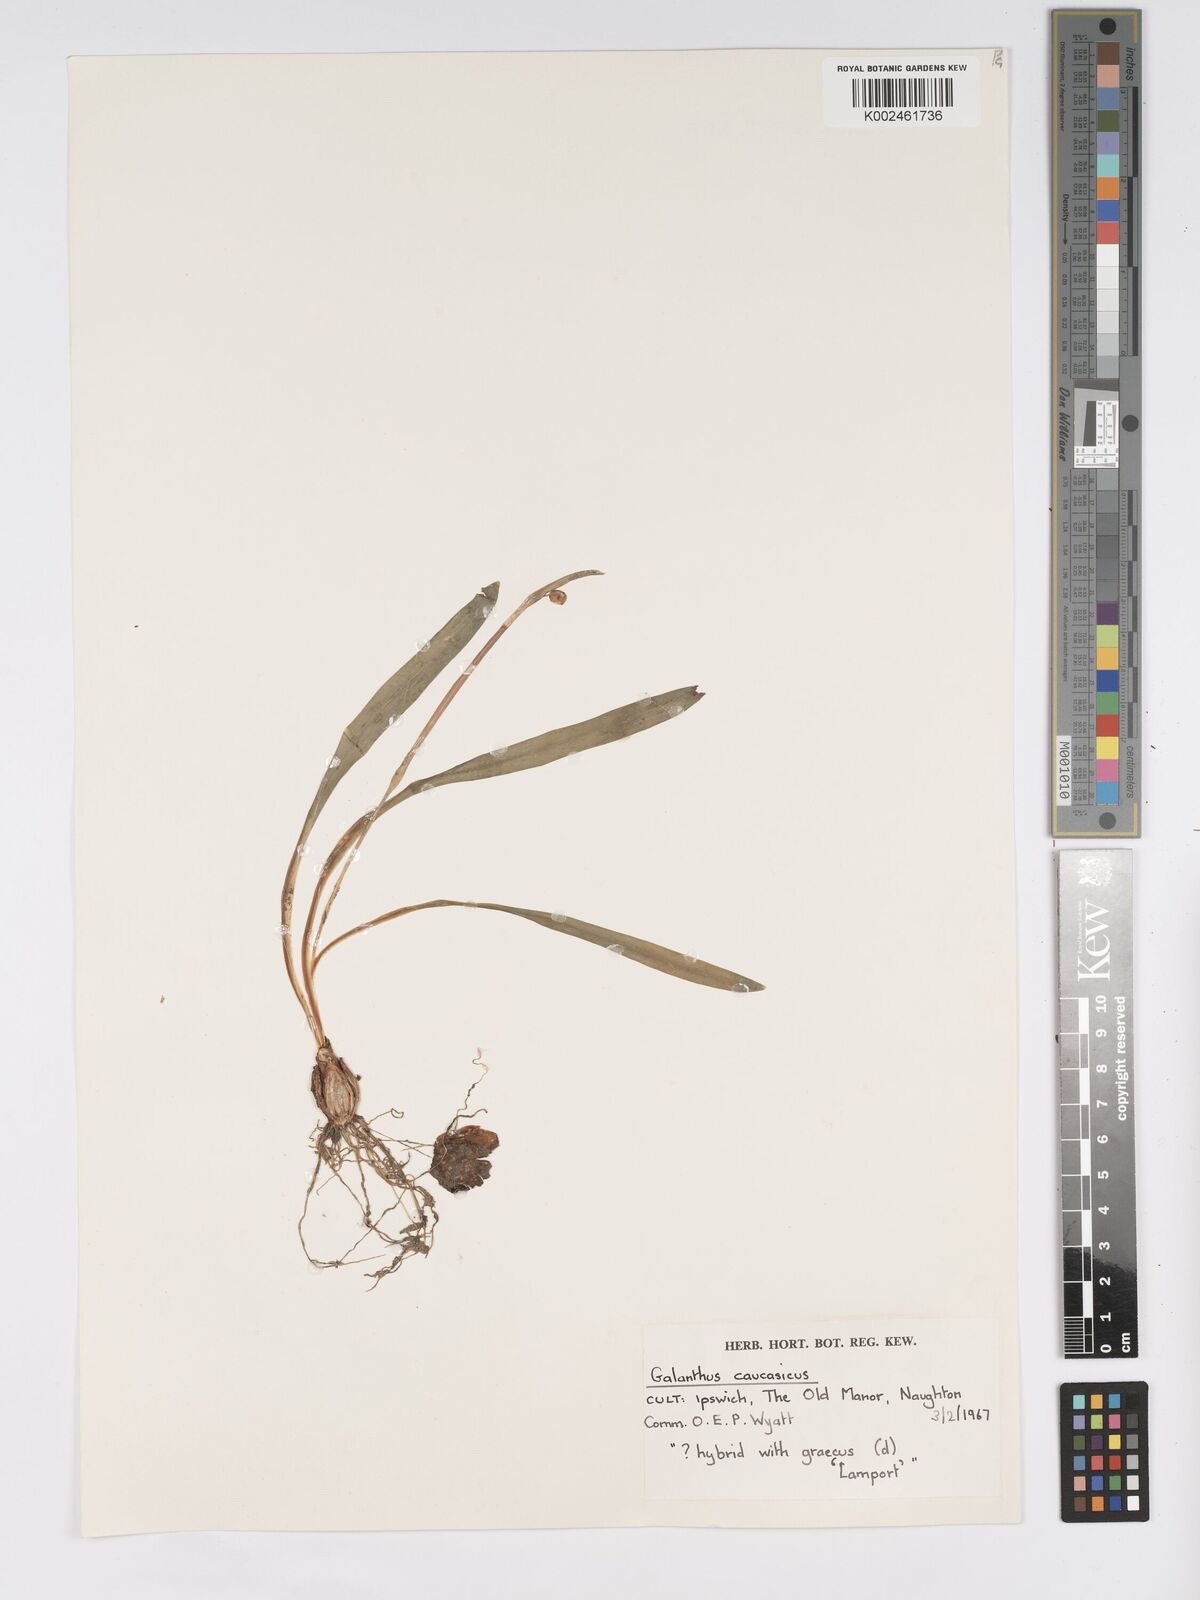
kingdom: Plantae
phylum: Tracheophyta
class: Liliopsida
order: Asparagales
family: Amaryllidaceae
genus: Galanthus
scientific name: Galanthus alpinus
